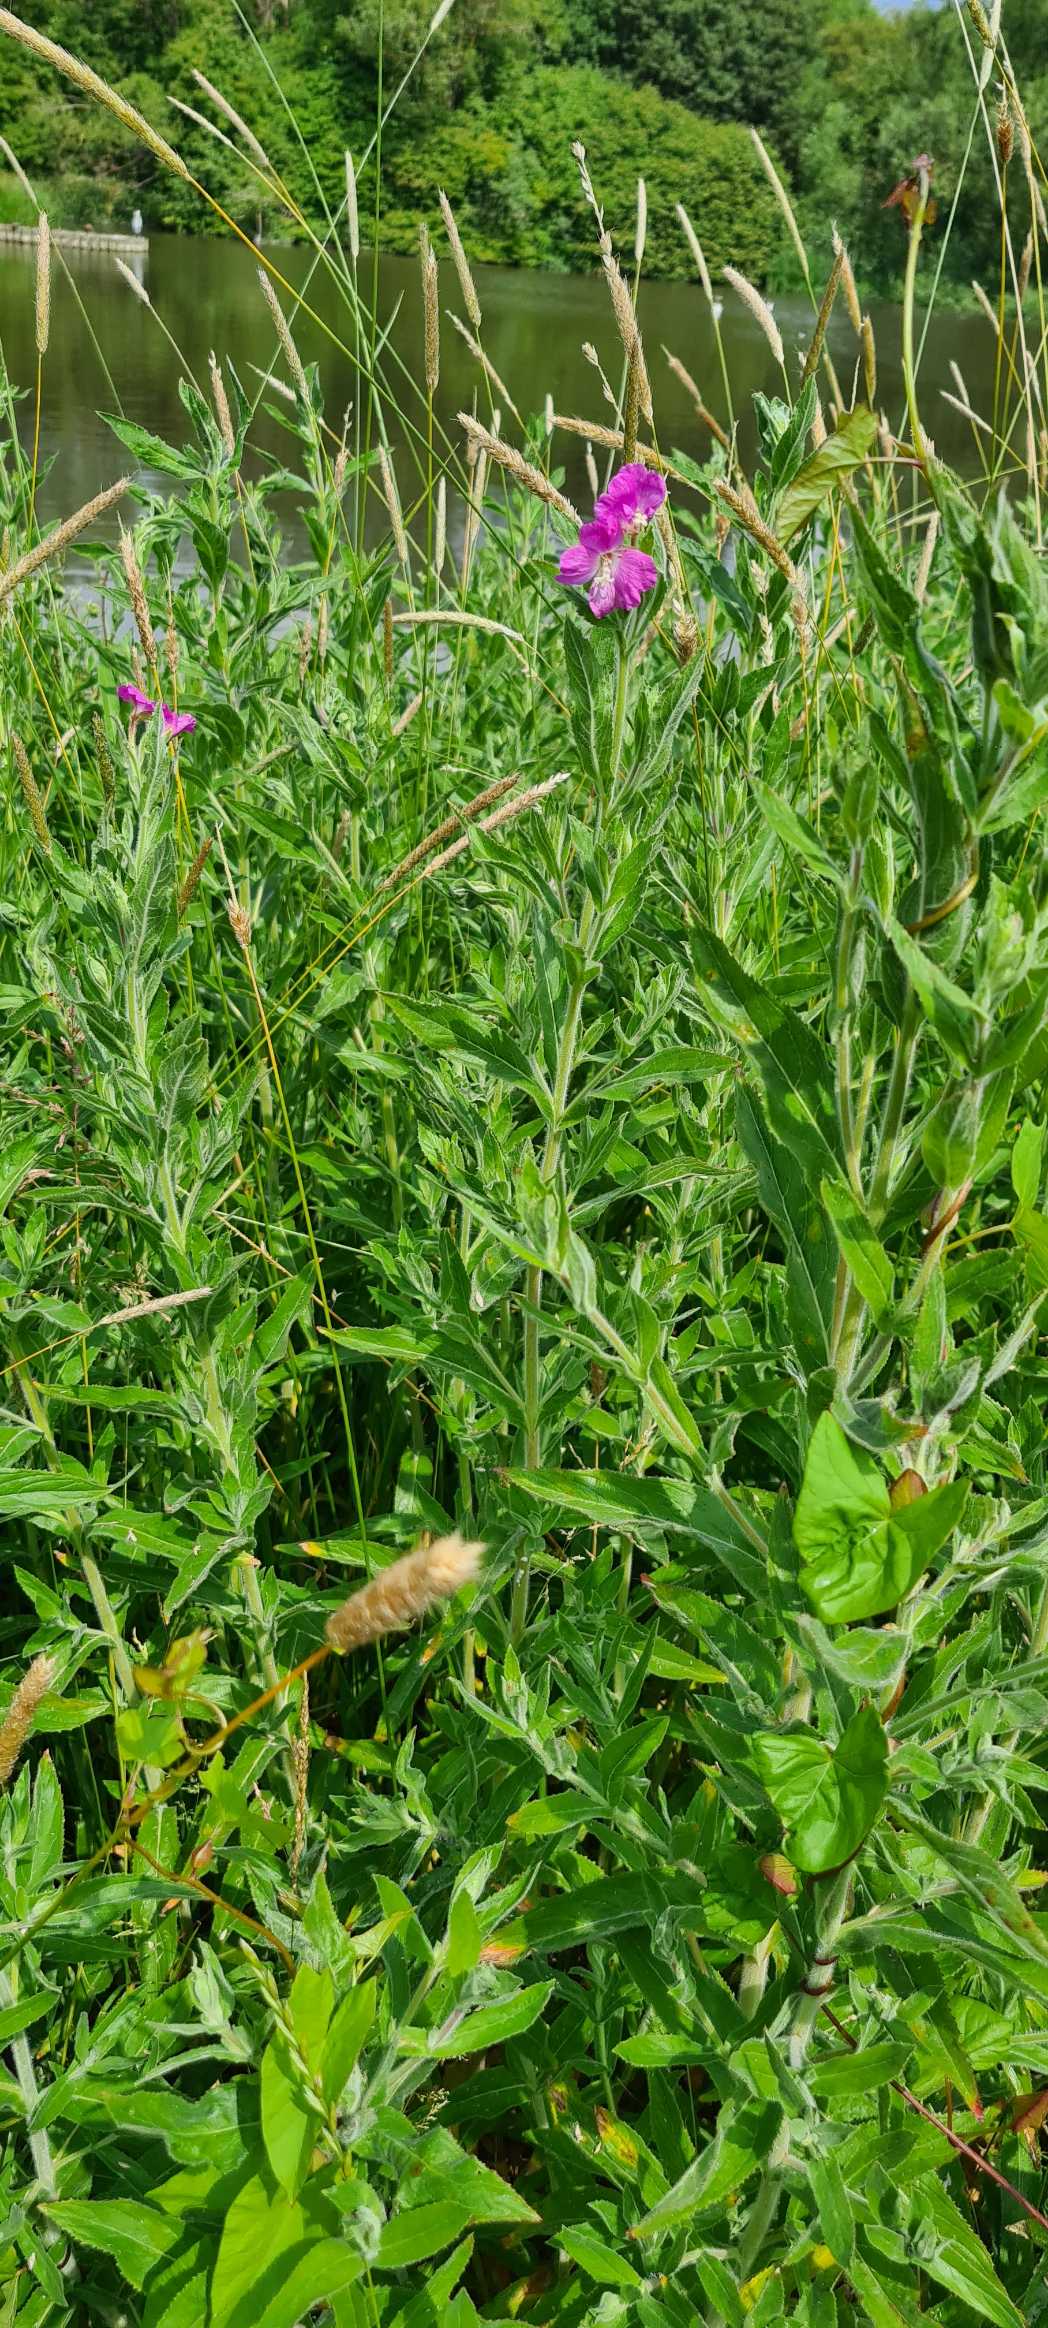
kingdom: Plantae
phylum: Tracheophyta
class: Magnoliopsida
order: Myrtales
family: Onagraceae
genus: Epilobium
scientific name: Epilobium hirsutum
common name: Lådden dueurt
